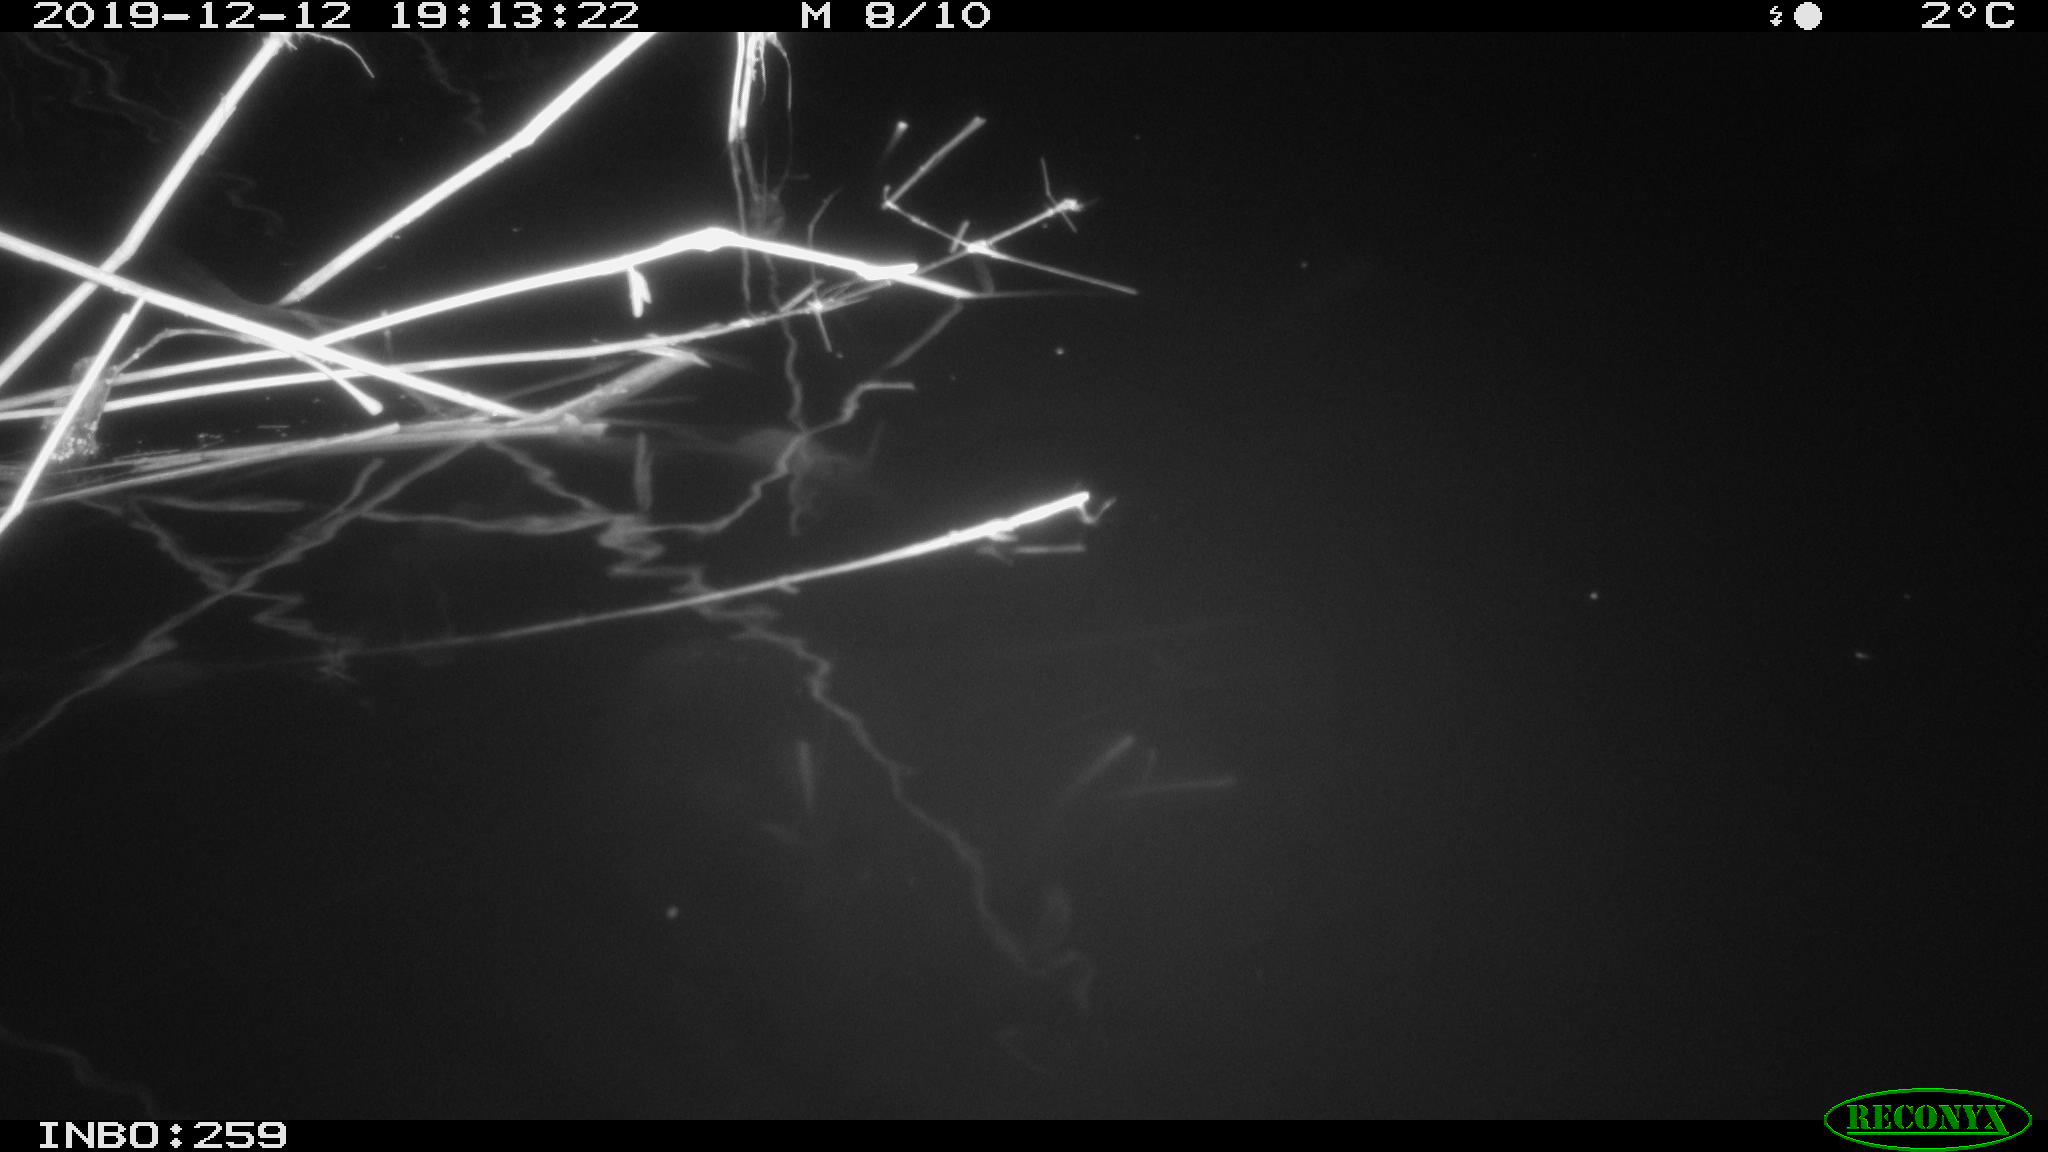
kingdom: Animalia
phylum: Chordata
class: Mammalia
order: Rodentia
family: Muridae
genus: Rattus
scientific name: Rattus norvegicus
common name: Brown rat
